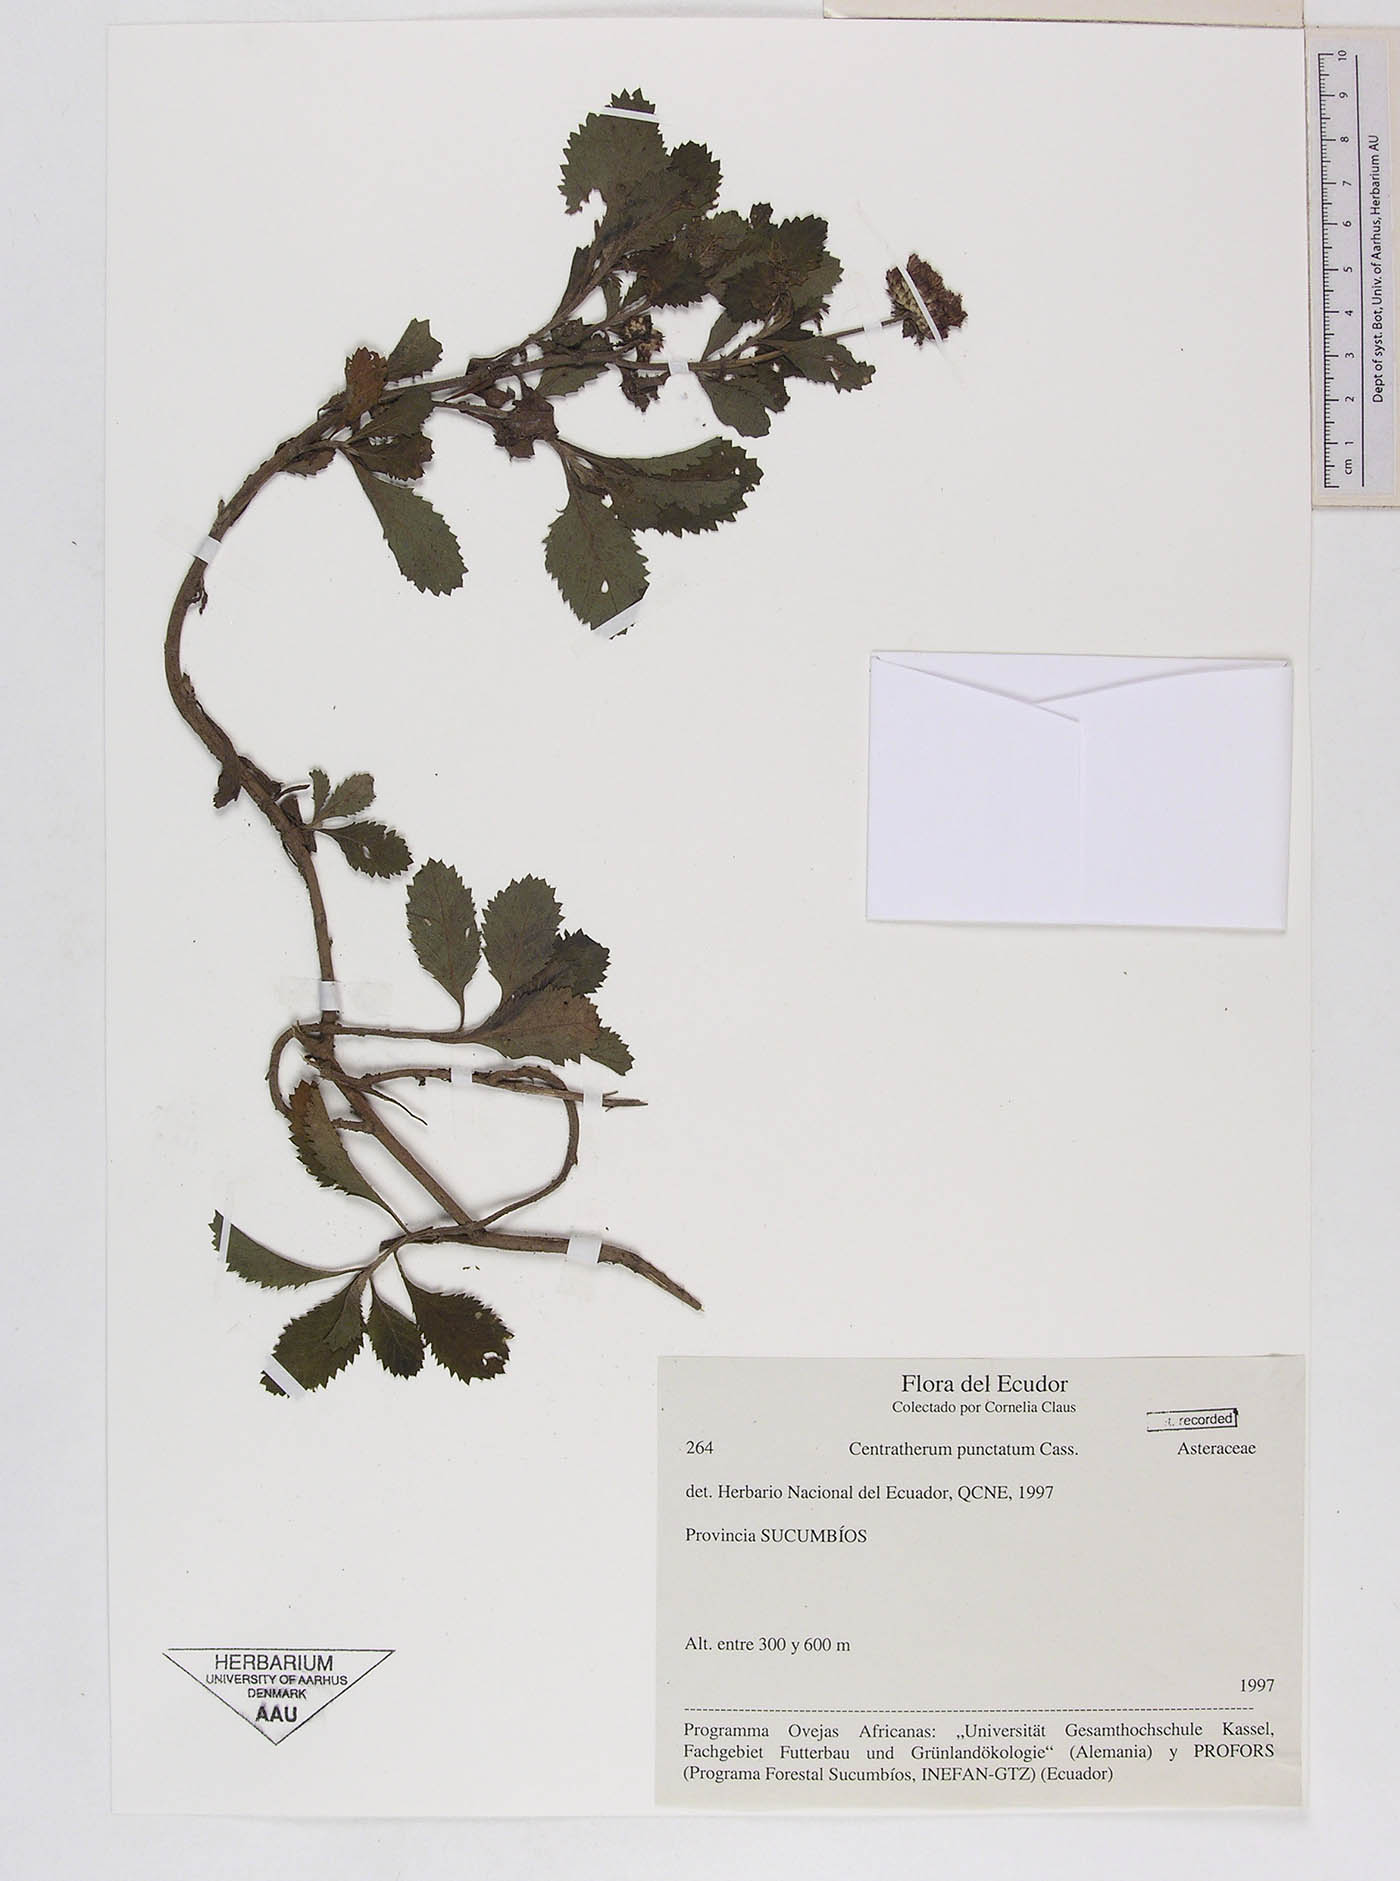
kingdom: Plantae
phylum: Tracheophyta
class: Magnoliopsida
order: Asterales
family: Asteraceae
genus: Centratherum
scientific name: Centratherum punctatum
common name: Larkdaisy
